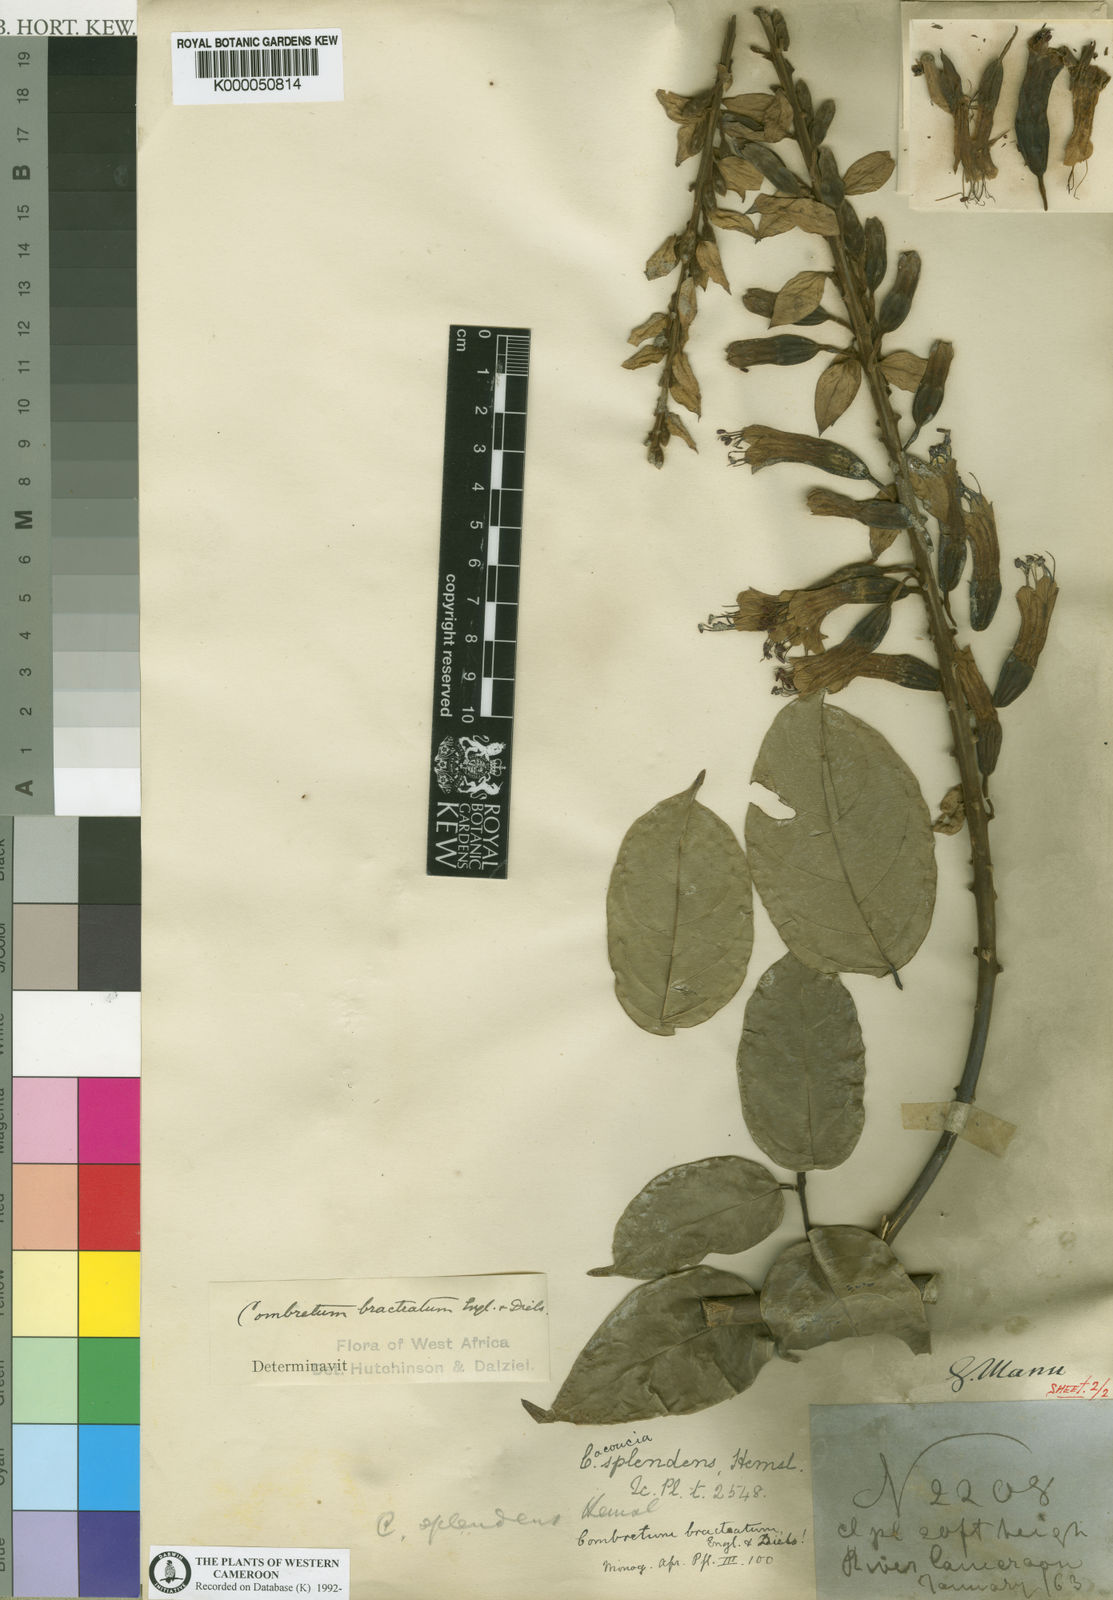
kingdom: Plantae
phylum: Tracheophyta
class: Magnoliopsida
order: Myrtales
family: Combretaceae
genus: Combretum
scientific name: Combretum bracteatum
